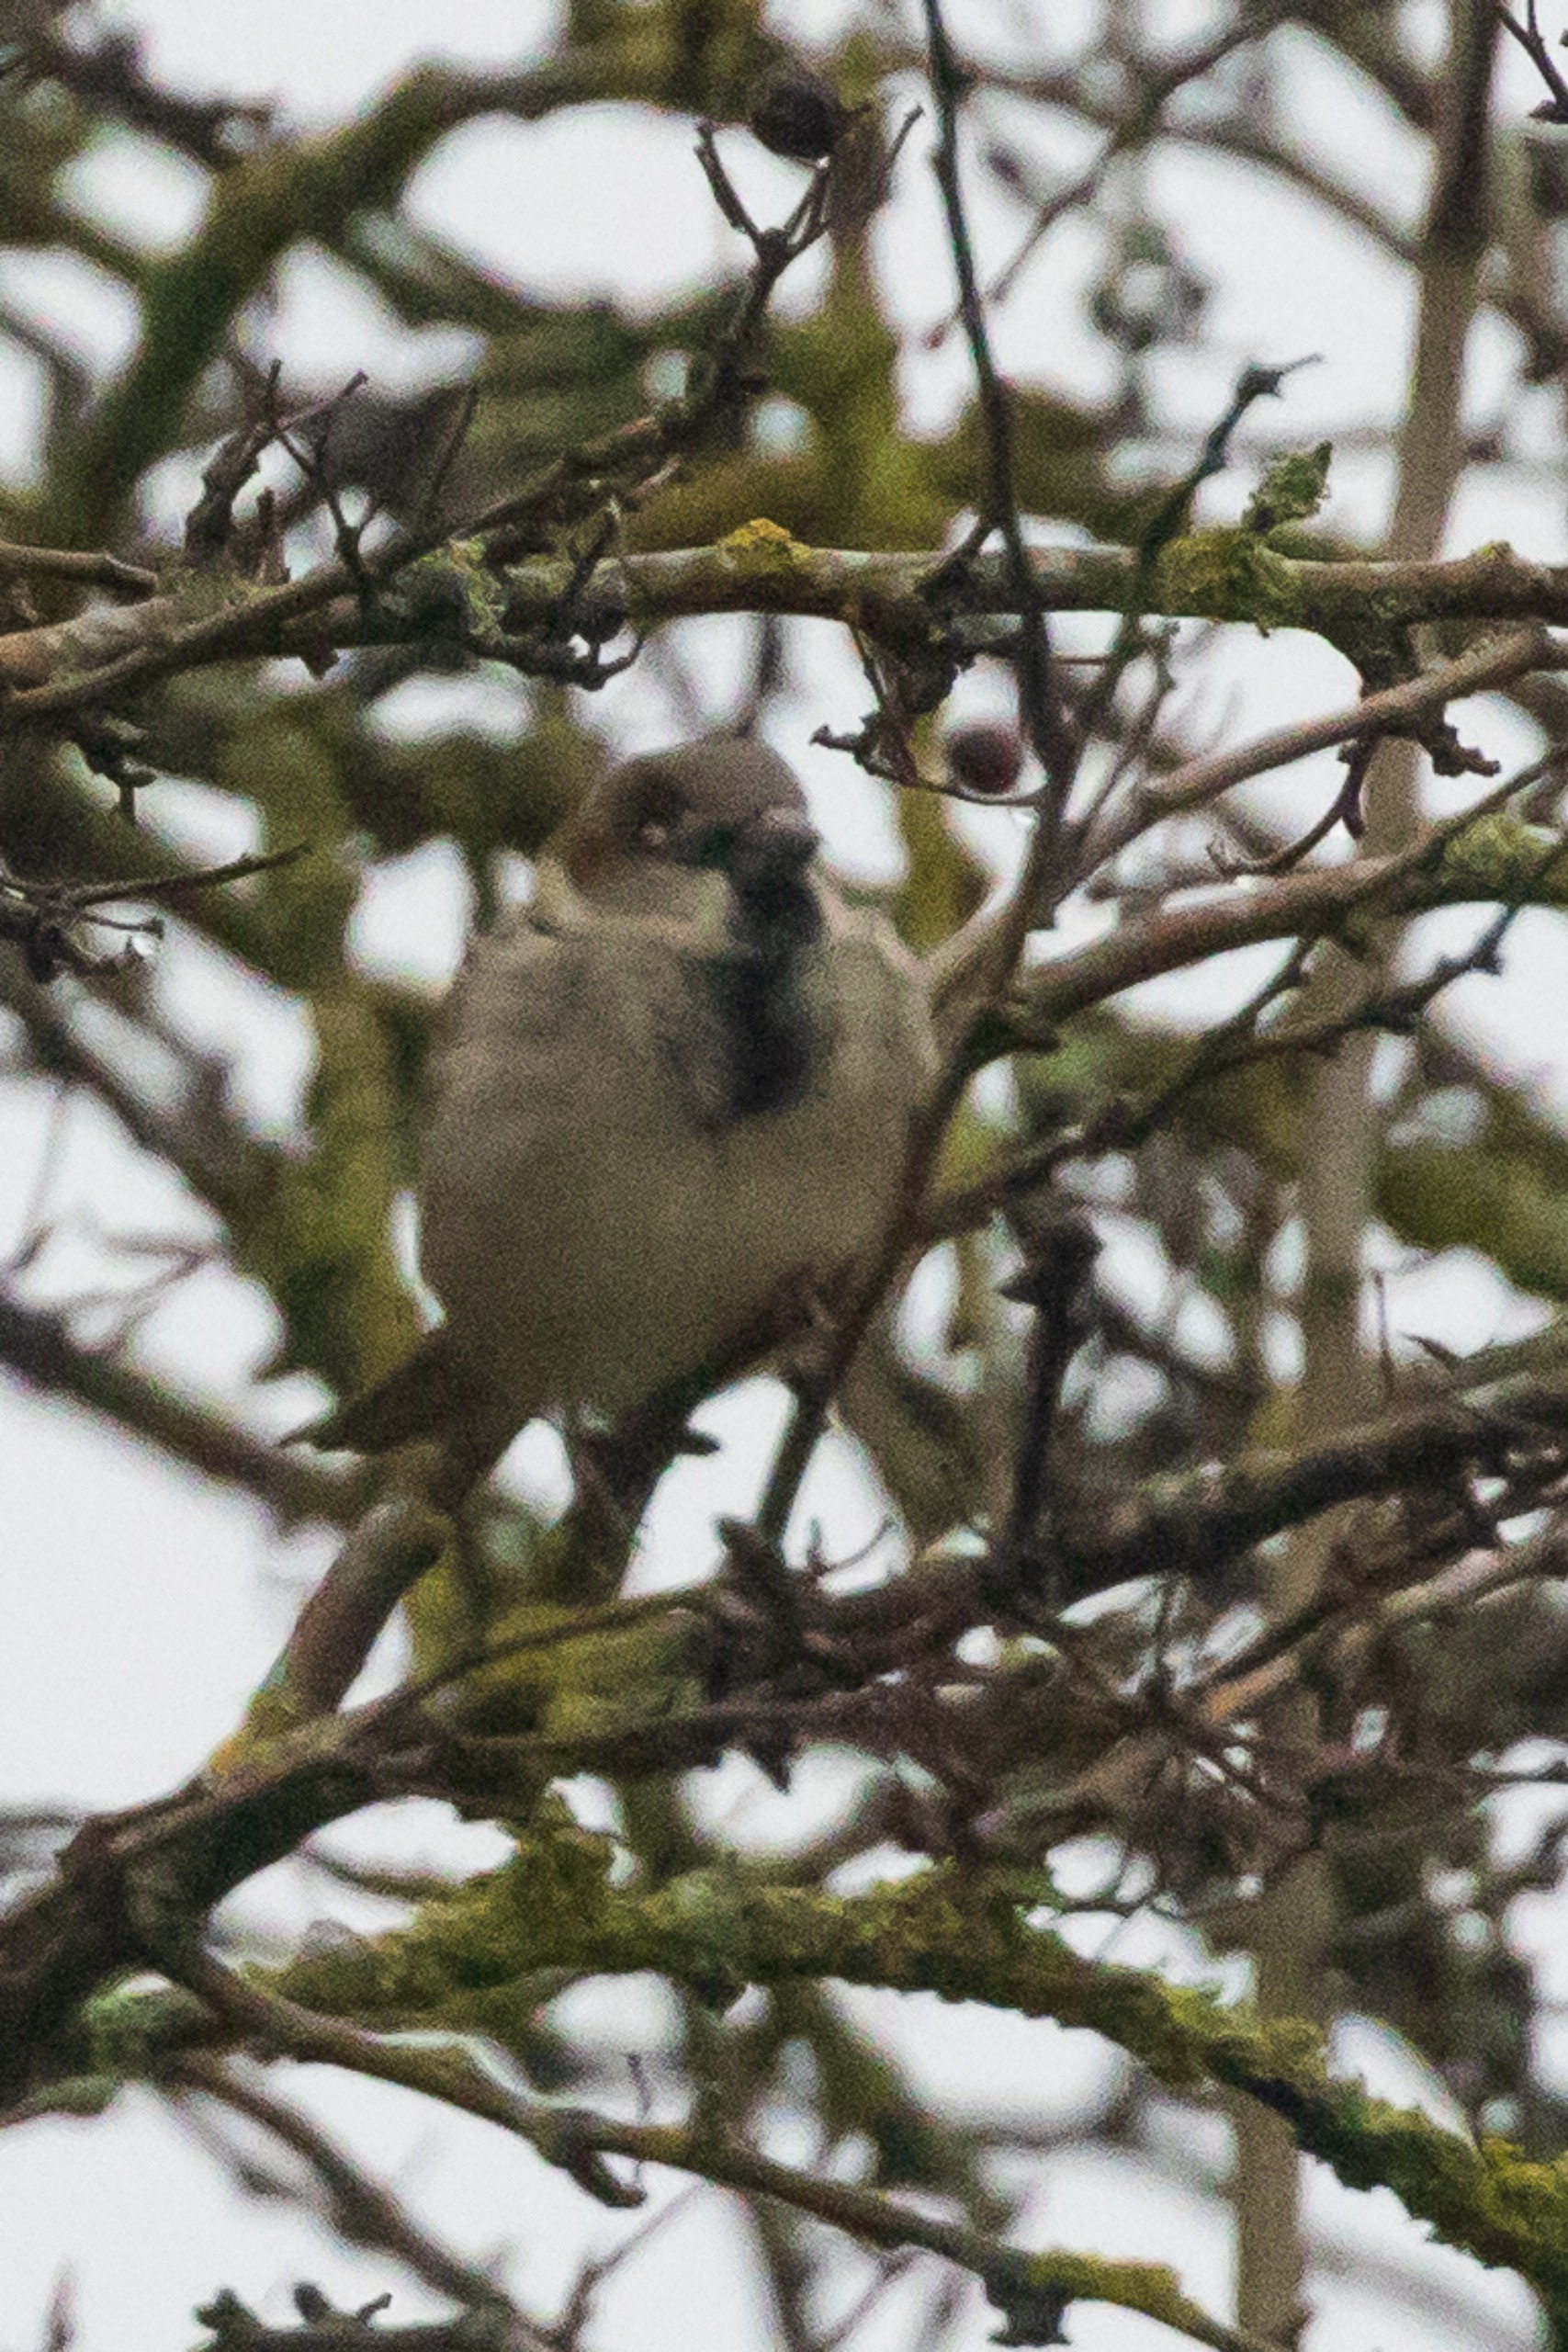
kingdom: Animalia
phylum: Chordata
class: Aves
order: Passeriformes
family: Passeridae
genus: Passer
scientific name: Passer domesticus
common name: Gråspurv
